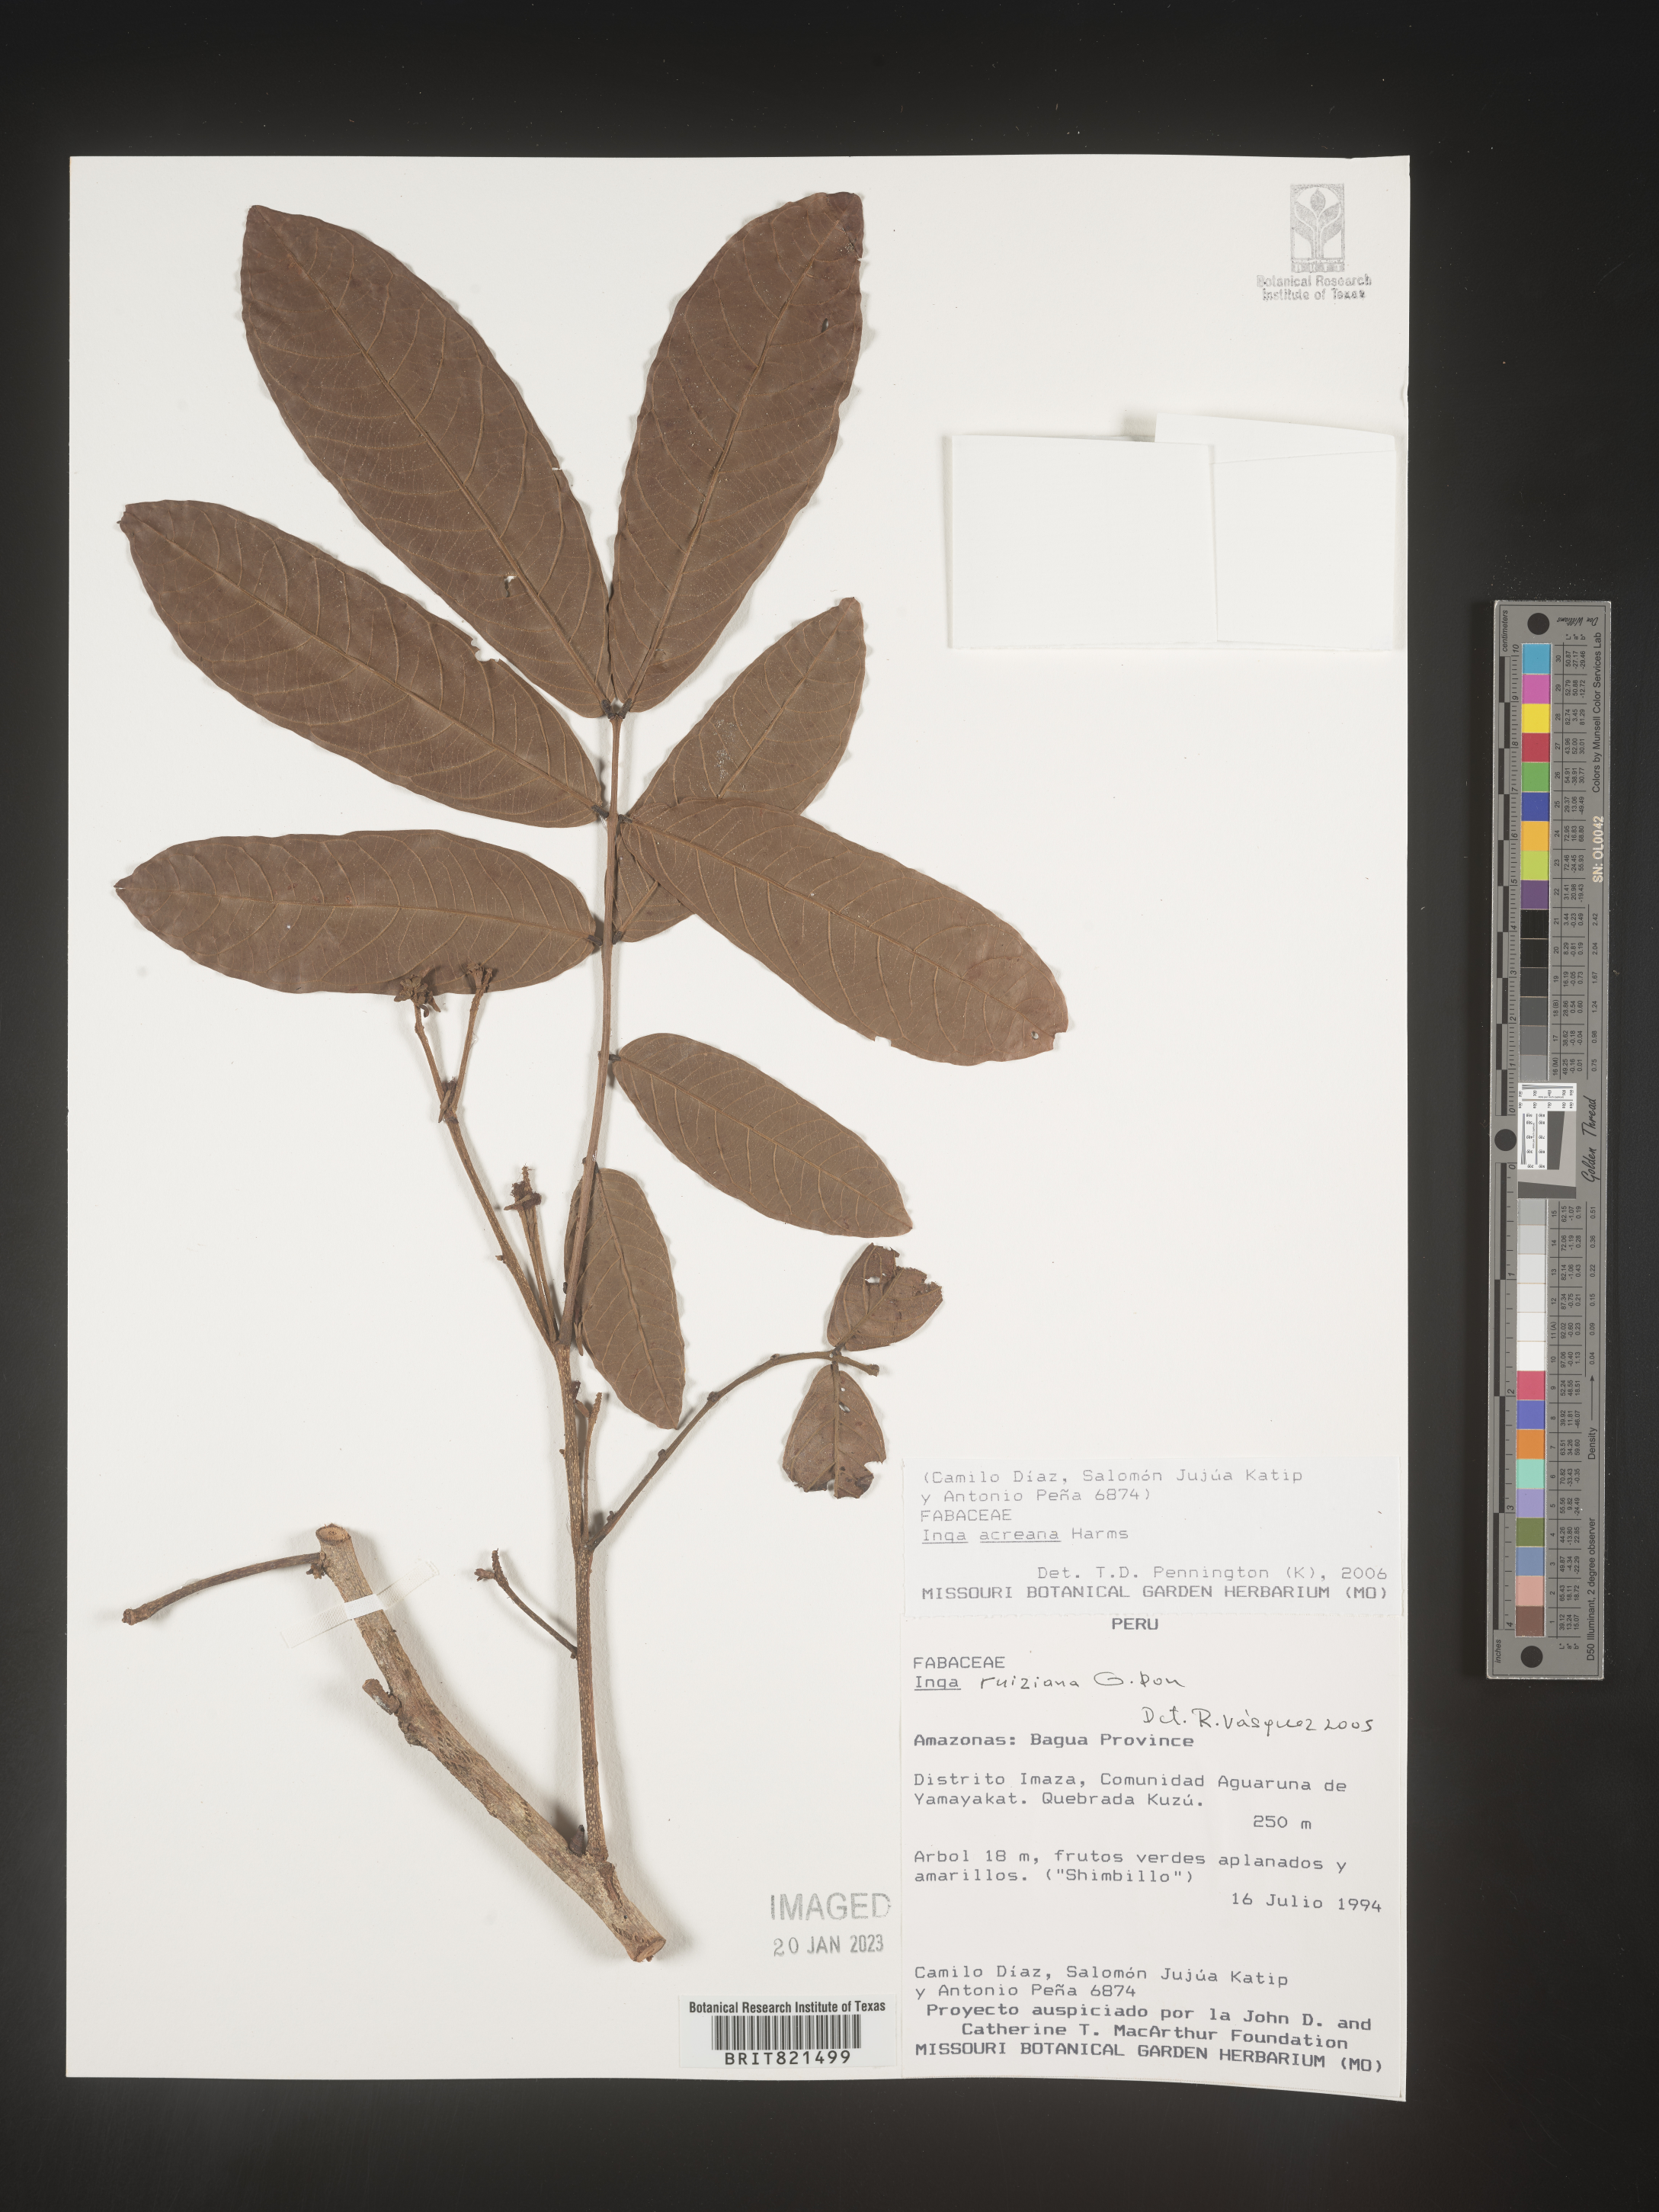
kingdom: Plantae
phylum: Tracheophyta
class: Magnoliopsida
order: Fabales
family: Fabaceae
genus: Inga
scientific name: Inga
